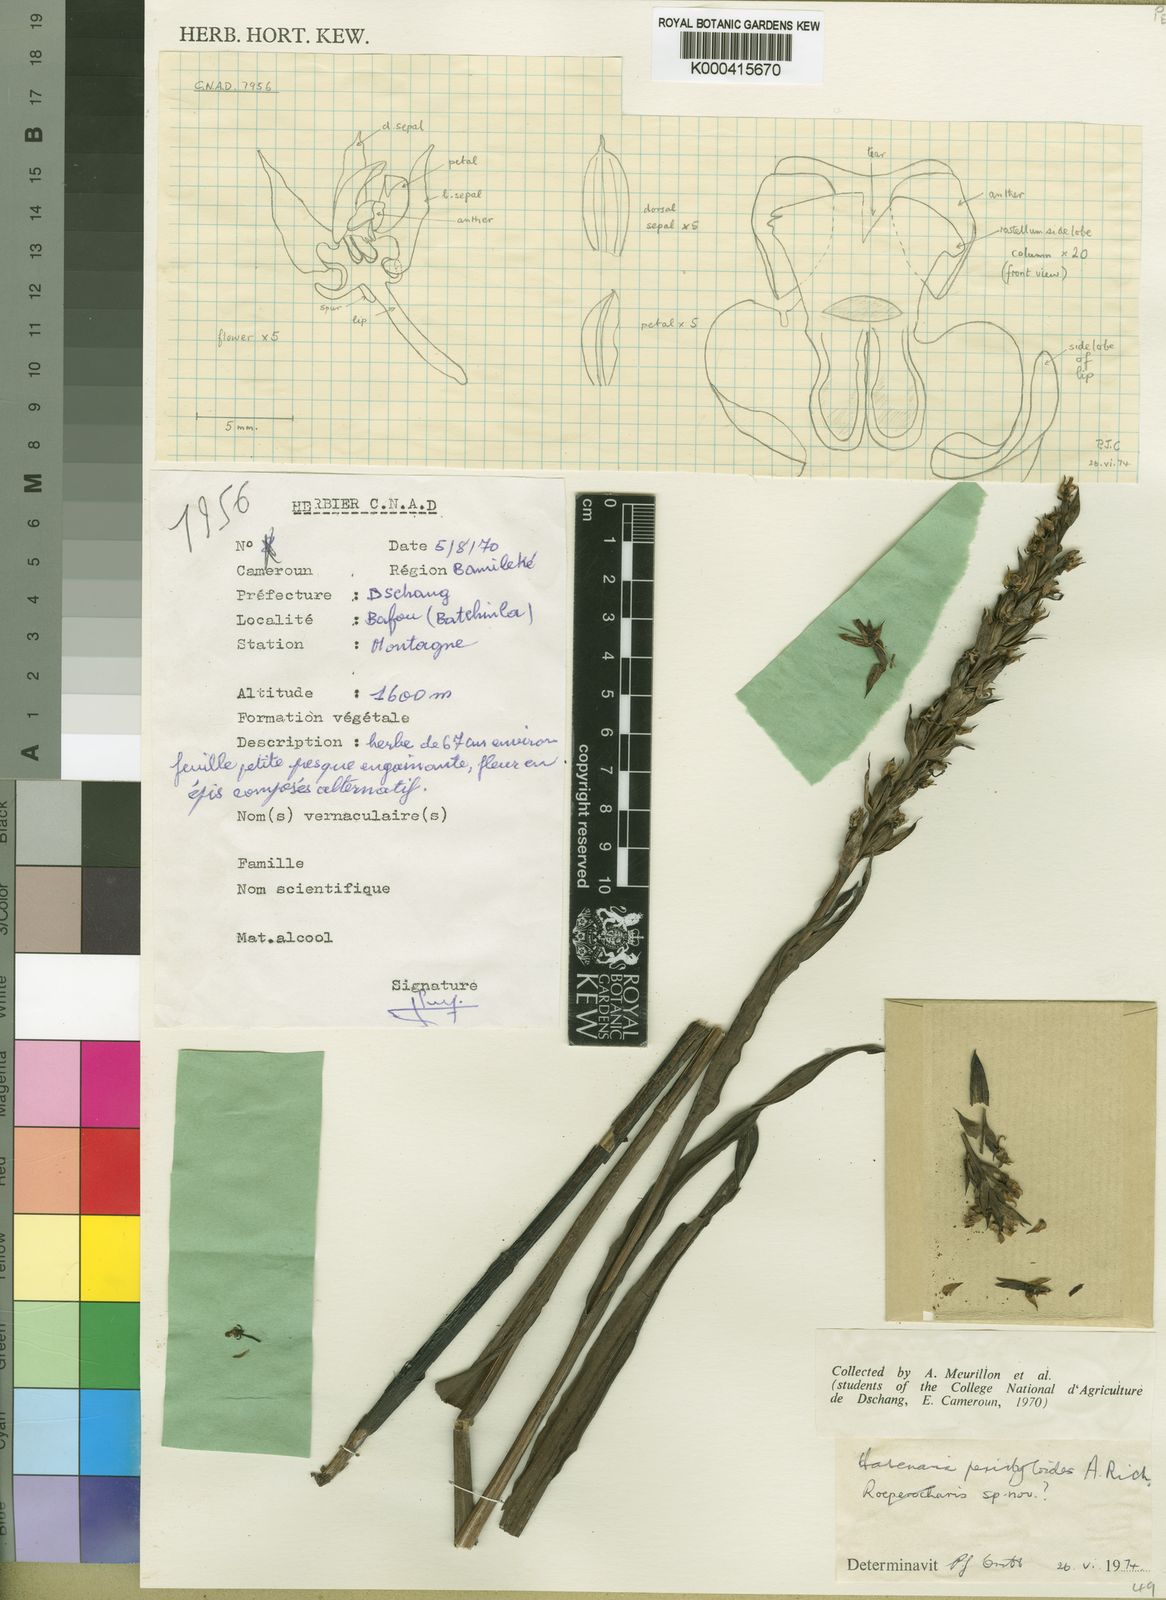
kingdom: Plantae
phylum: Tracheophyta
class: Liliopsida
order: Asparagales
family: Orchidaceae
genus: Habenaria
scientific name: Habenaria peristyloides
